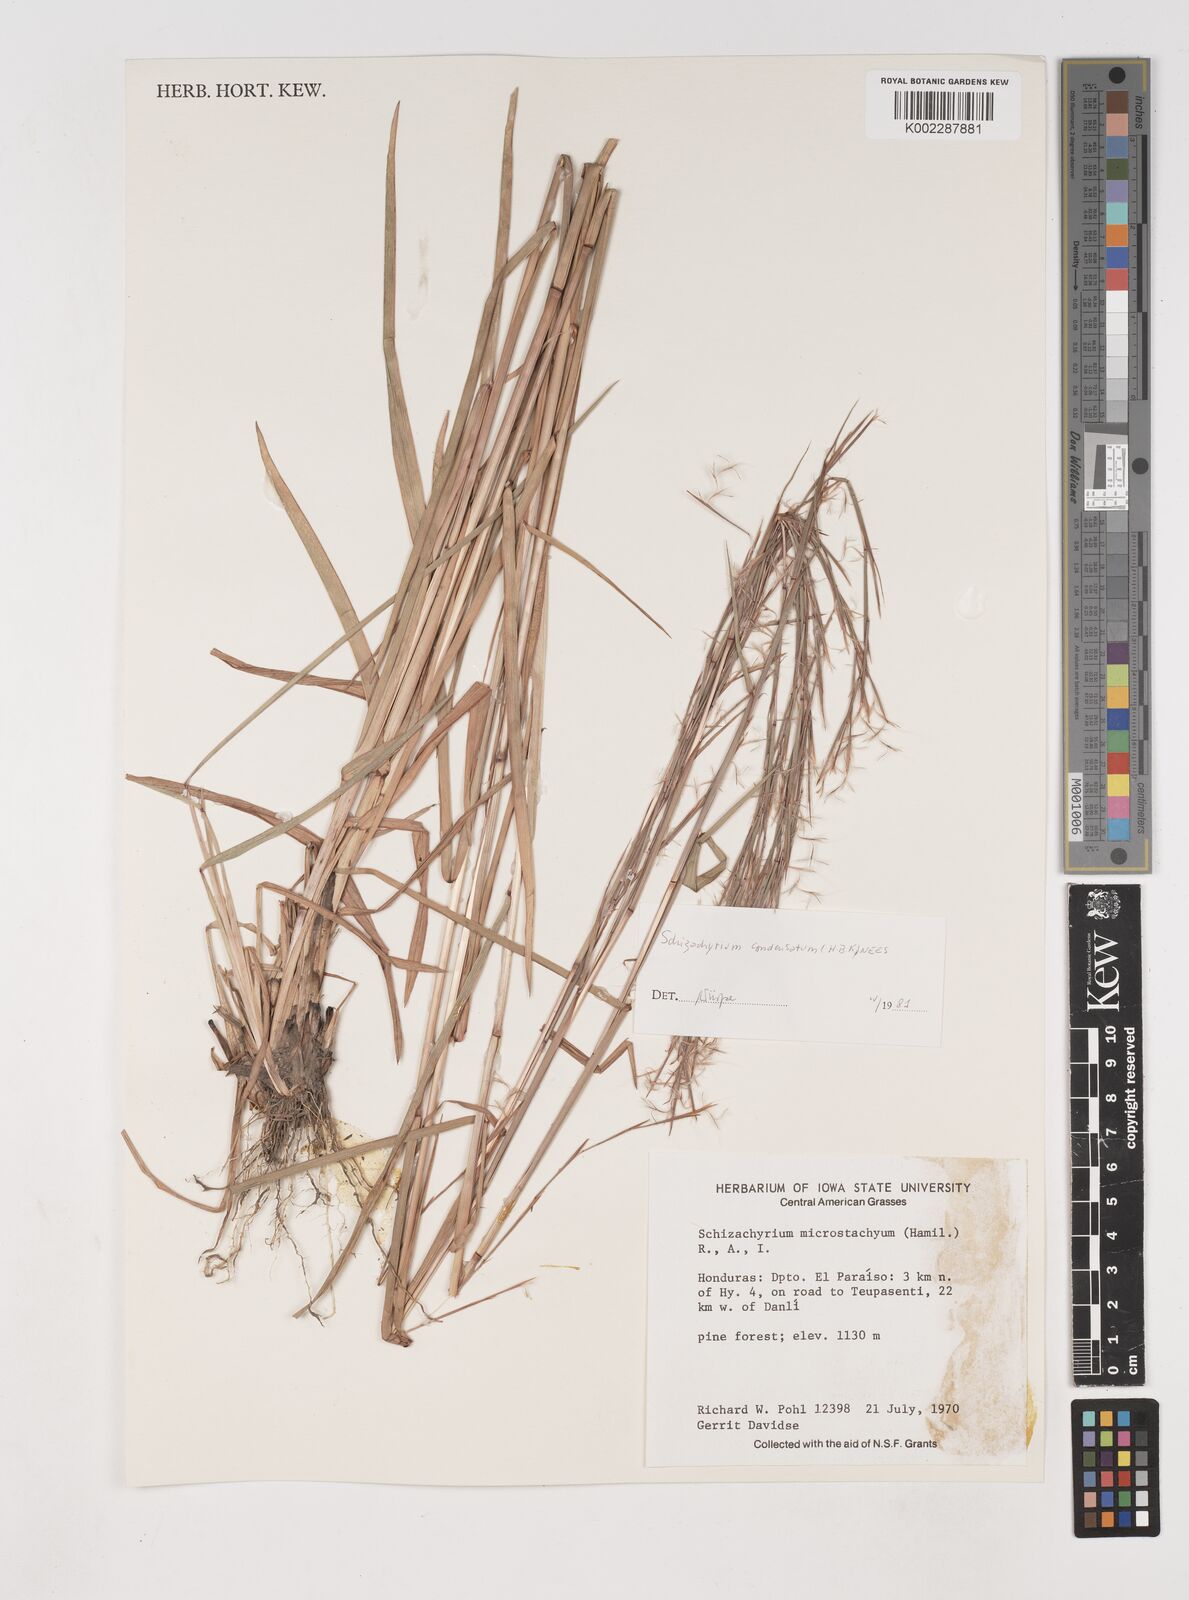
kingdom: Plantae
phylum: Tracheophyta
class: Liliopsida
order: Poales
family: Poaceae
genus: Schizachyrium
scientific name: Schizachyrium condensatum
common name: Bush beardgrass
